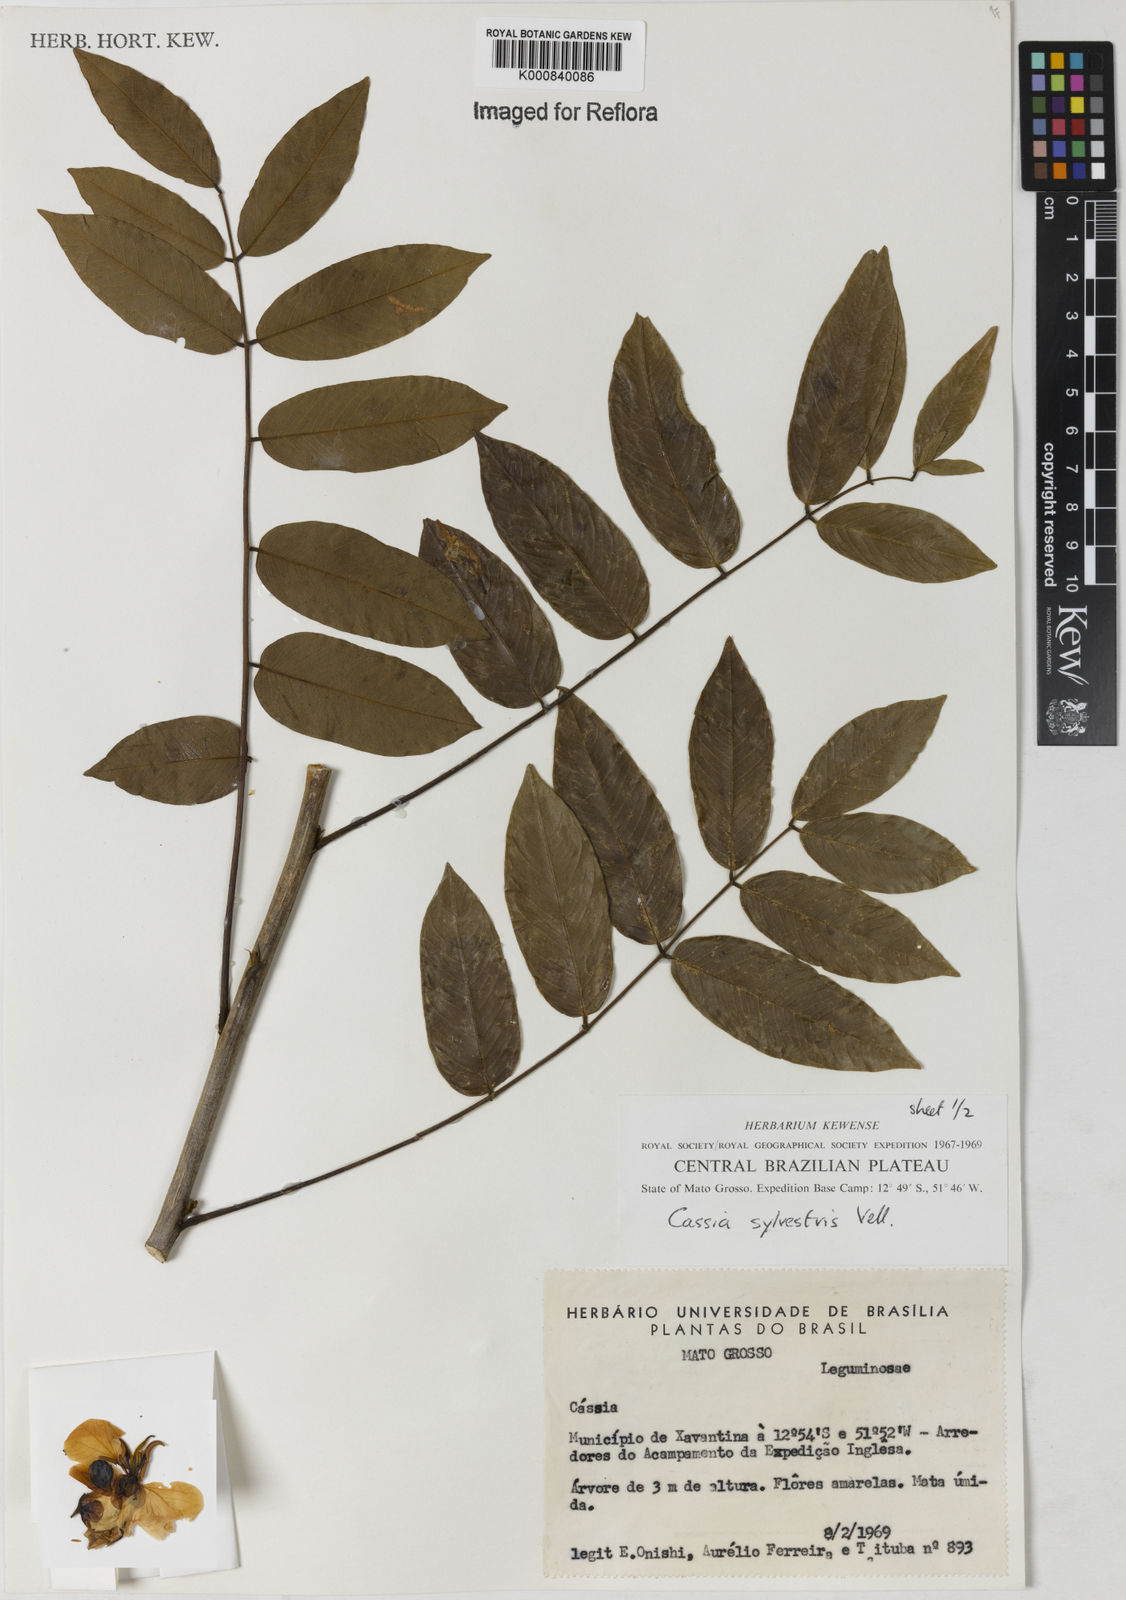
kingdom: Plantae
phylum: Tracheophyta
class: Magnoliopsida
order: Fabales
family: Fabaceae
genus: Senna
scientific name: Senna silvestris
